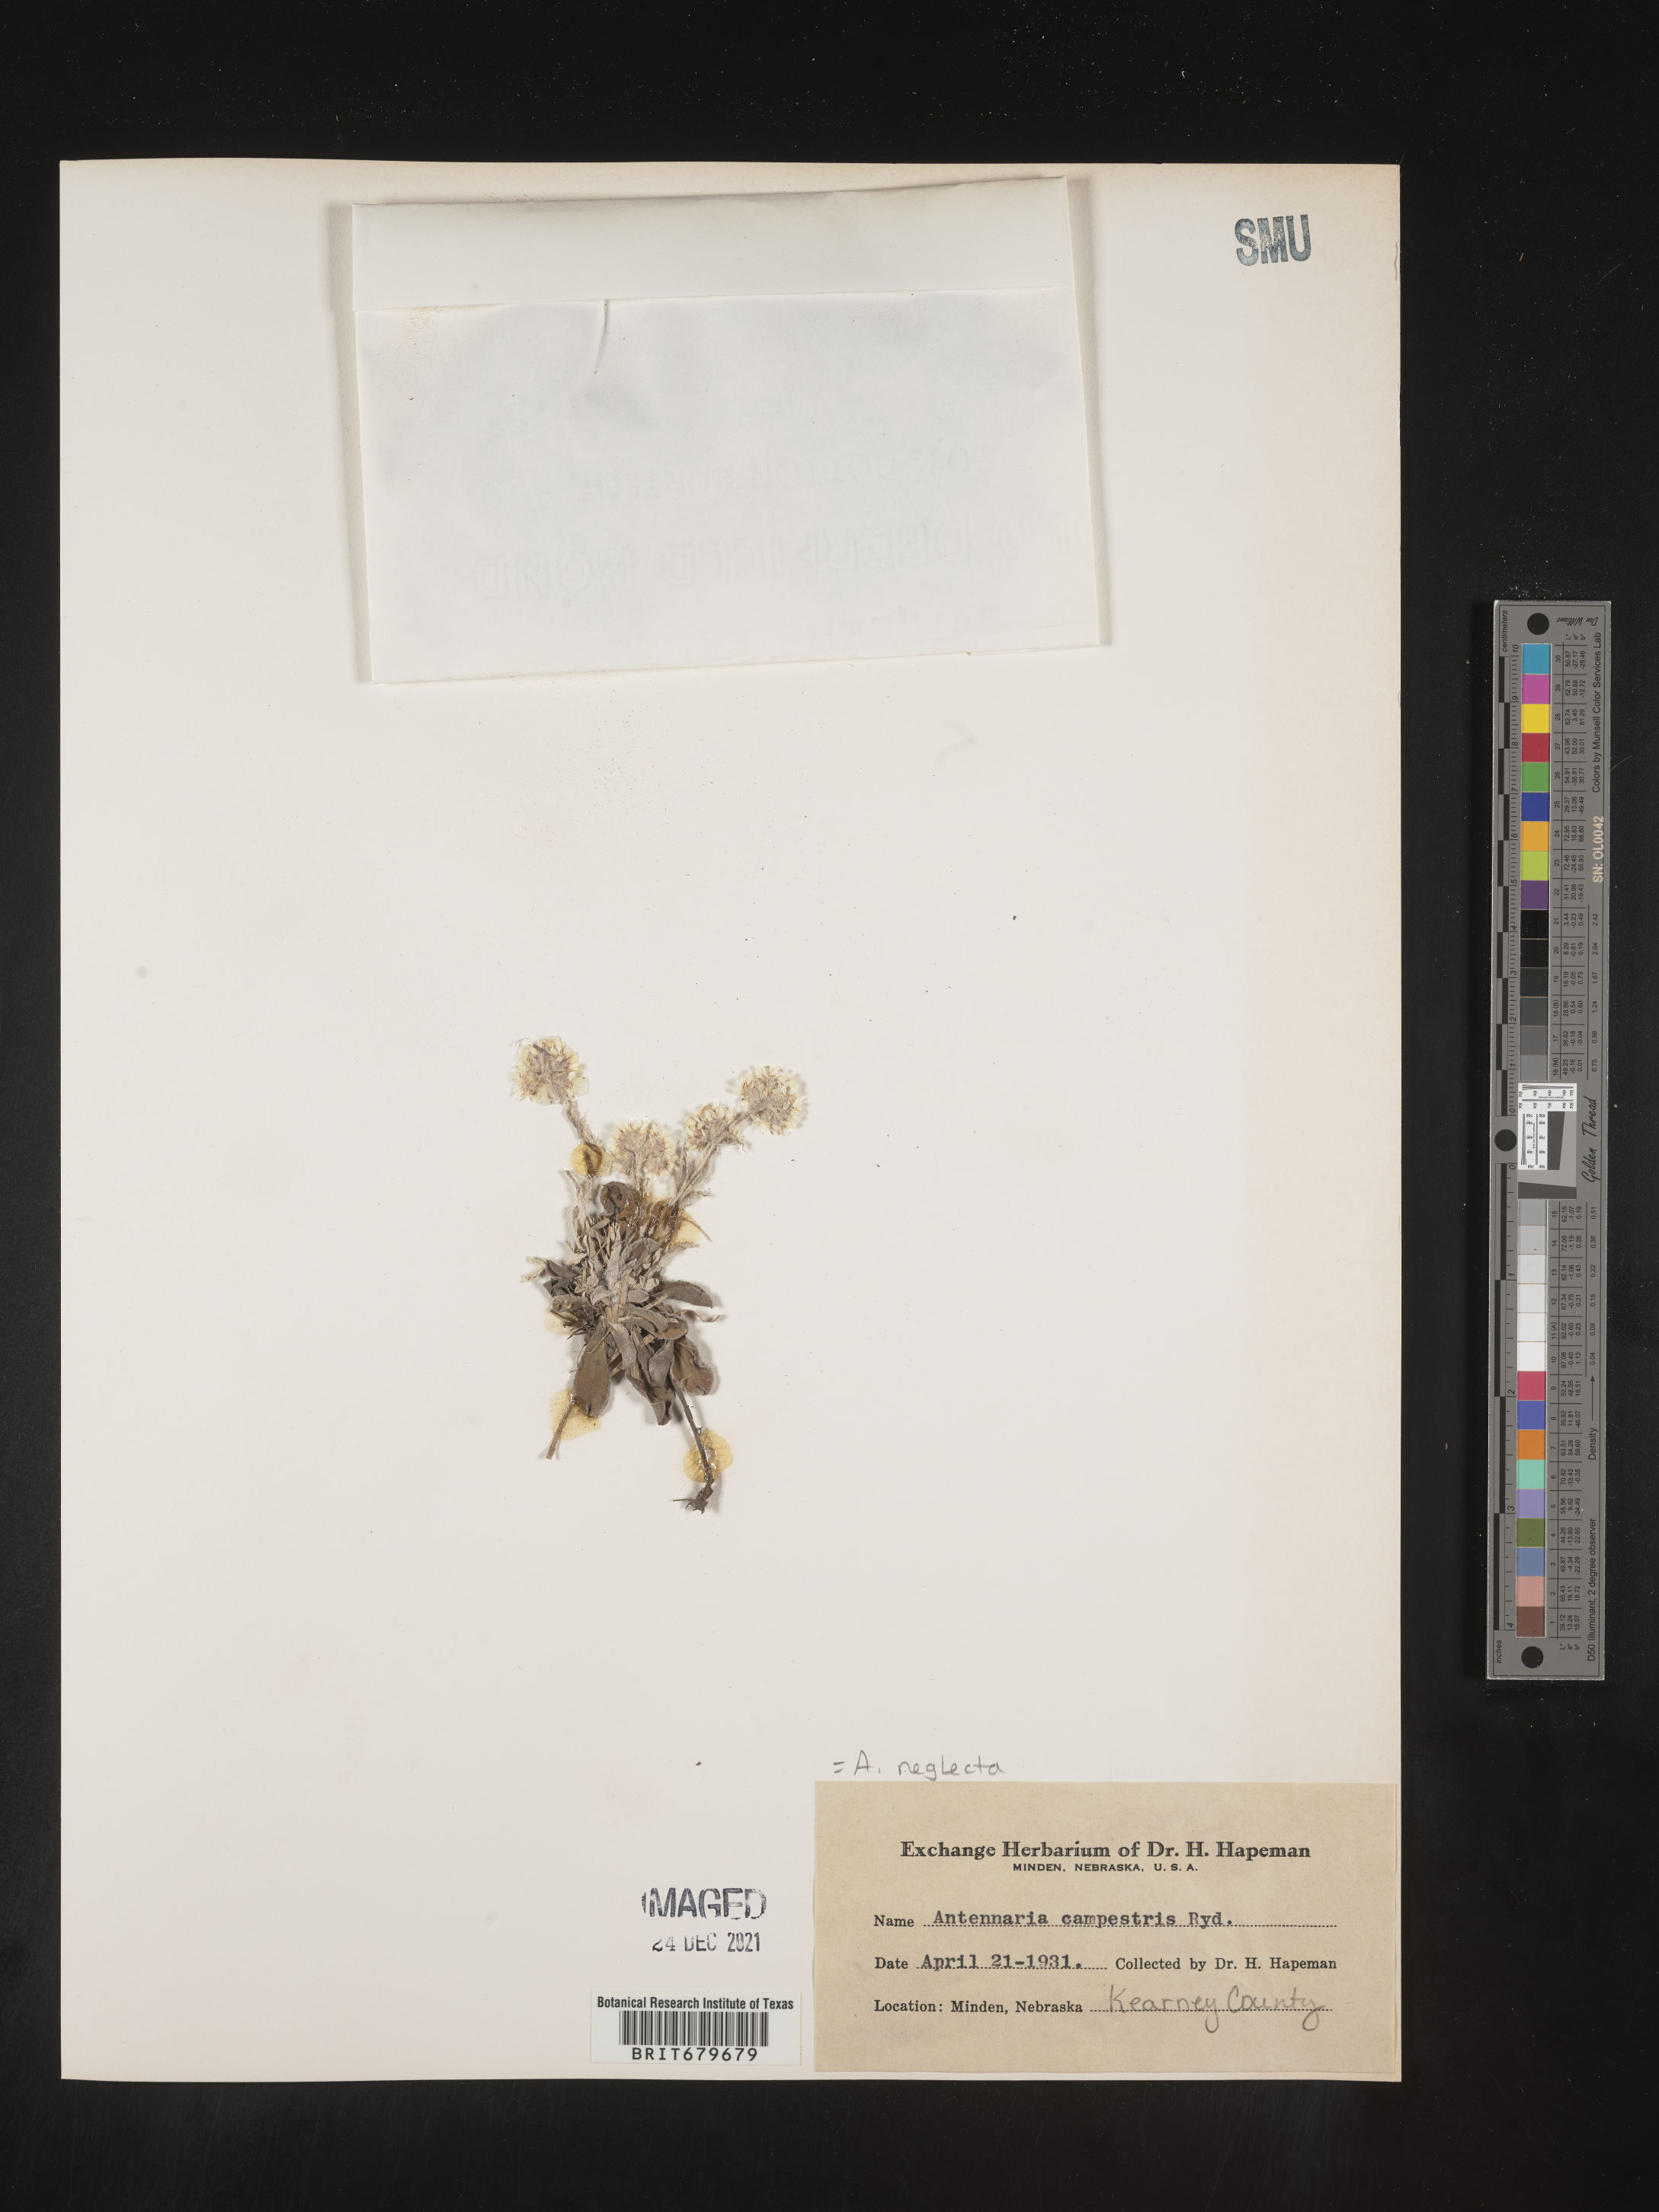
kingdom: Plantae
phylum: Tracheophyta
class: Magnoliopsida
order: Asterales
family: Asteraceae
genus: Antennaria
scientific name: Antennaria neglecta
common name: Field pussytoes
